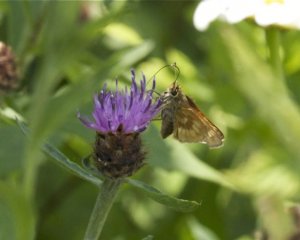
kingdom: Animalia
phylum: Arthropoda
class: Insecta
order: Lepidoptera
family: Hesperiidae
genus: Polites
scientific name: Polites
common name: Long Dash Skipper
